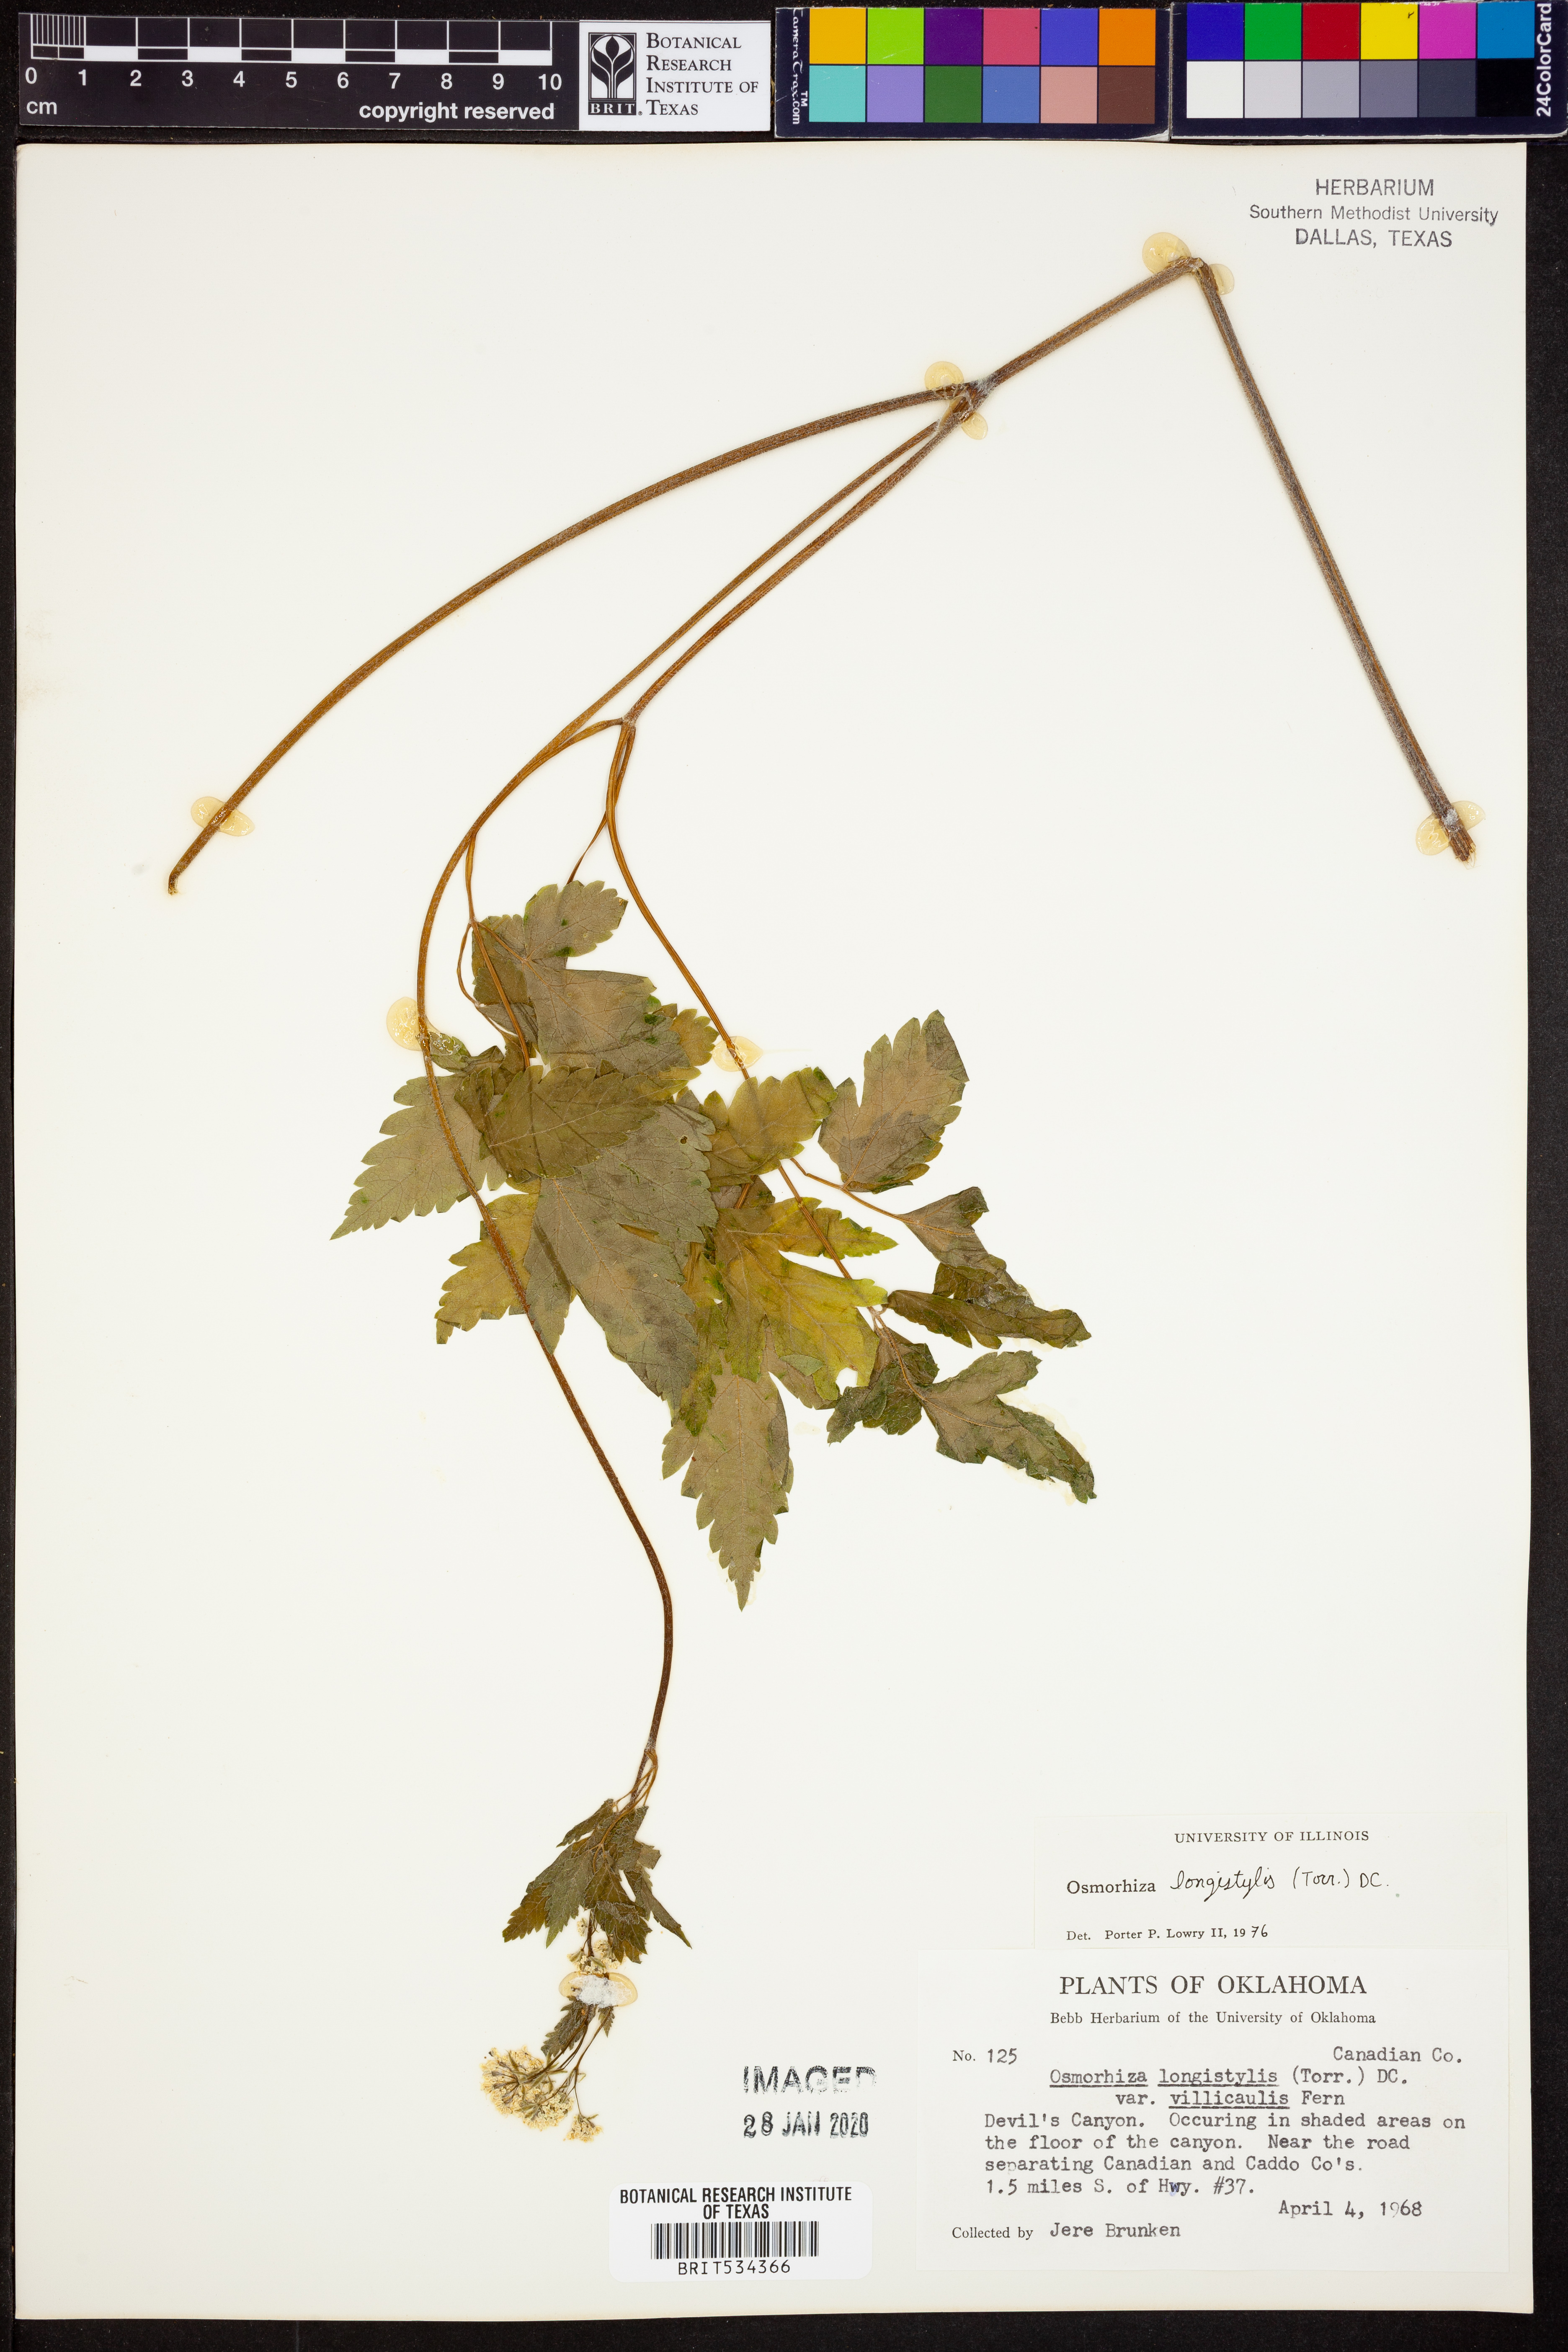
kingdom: Plantae
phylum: Tracheophyta
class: Magnoliopsida
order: Apiales
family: Apiaceae
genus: Osmorhiza
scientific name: Osmorhiza longistylis
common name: Smooth sweet cicely
